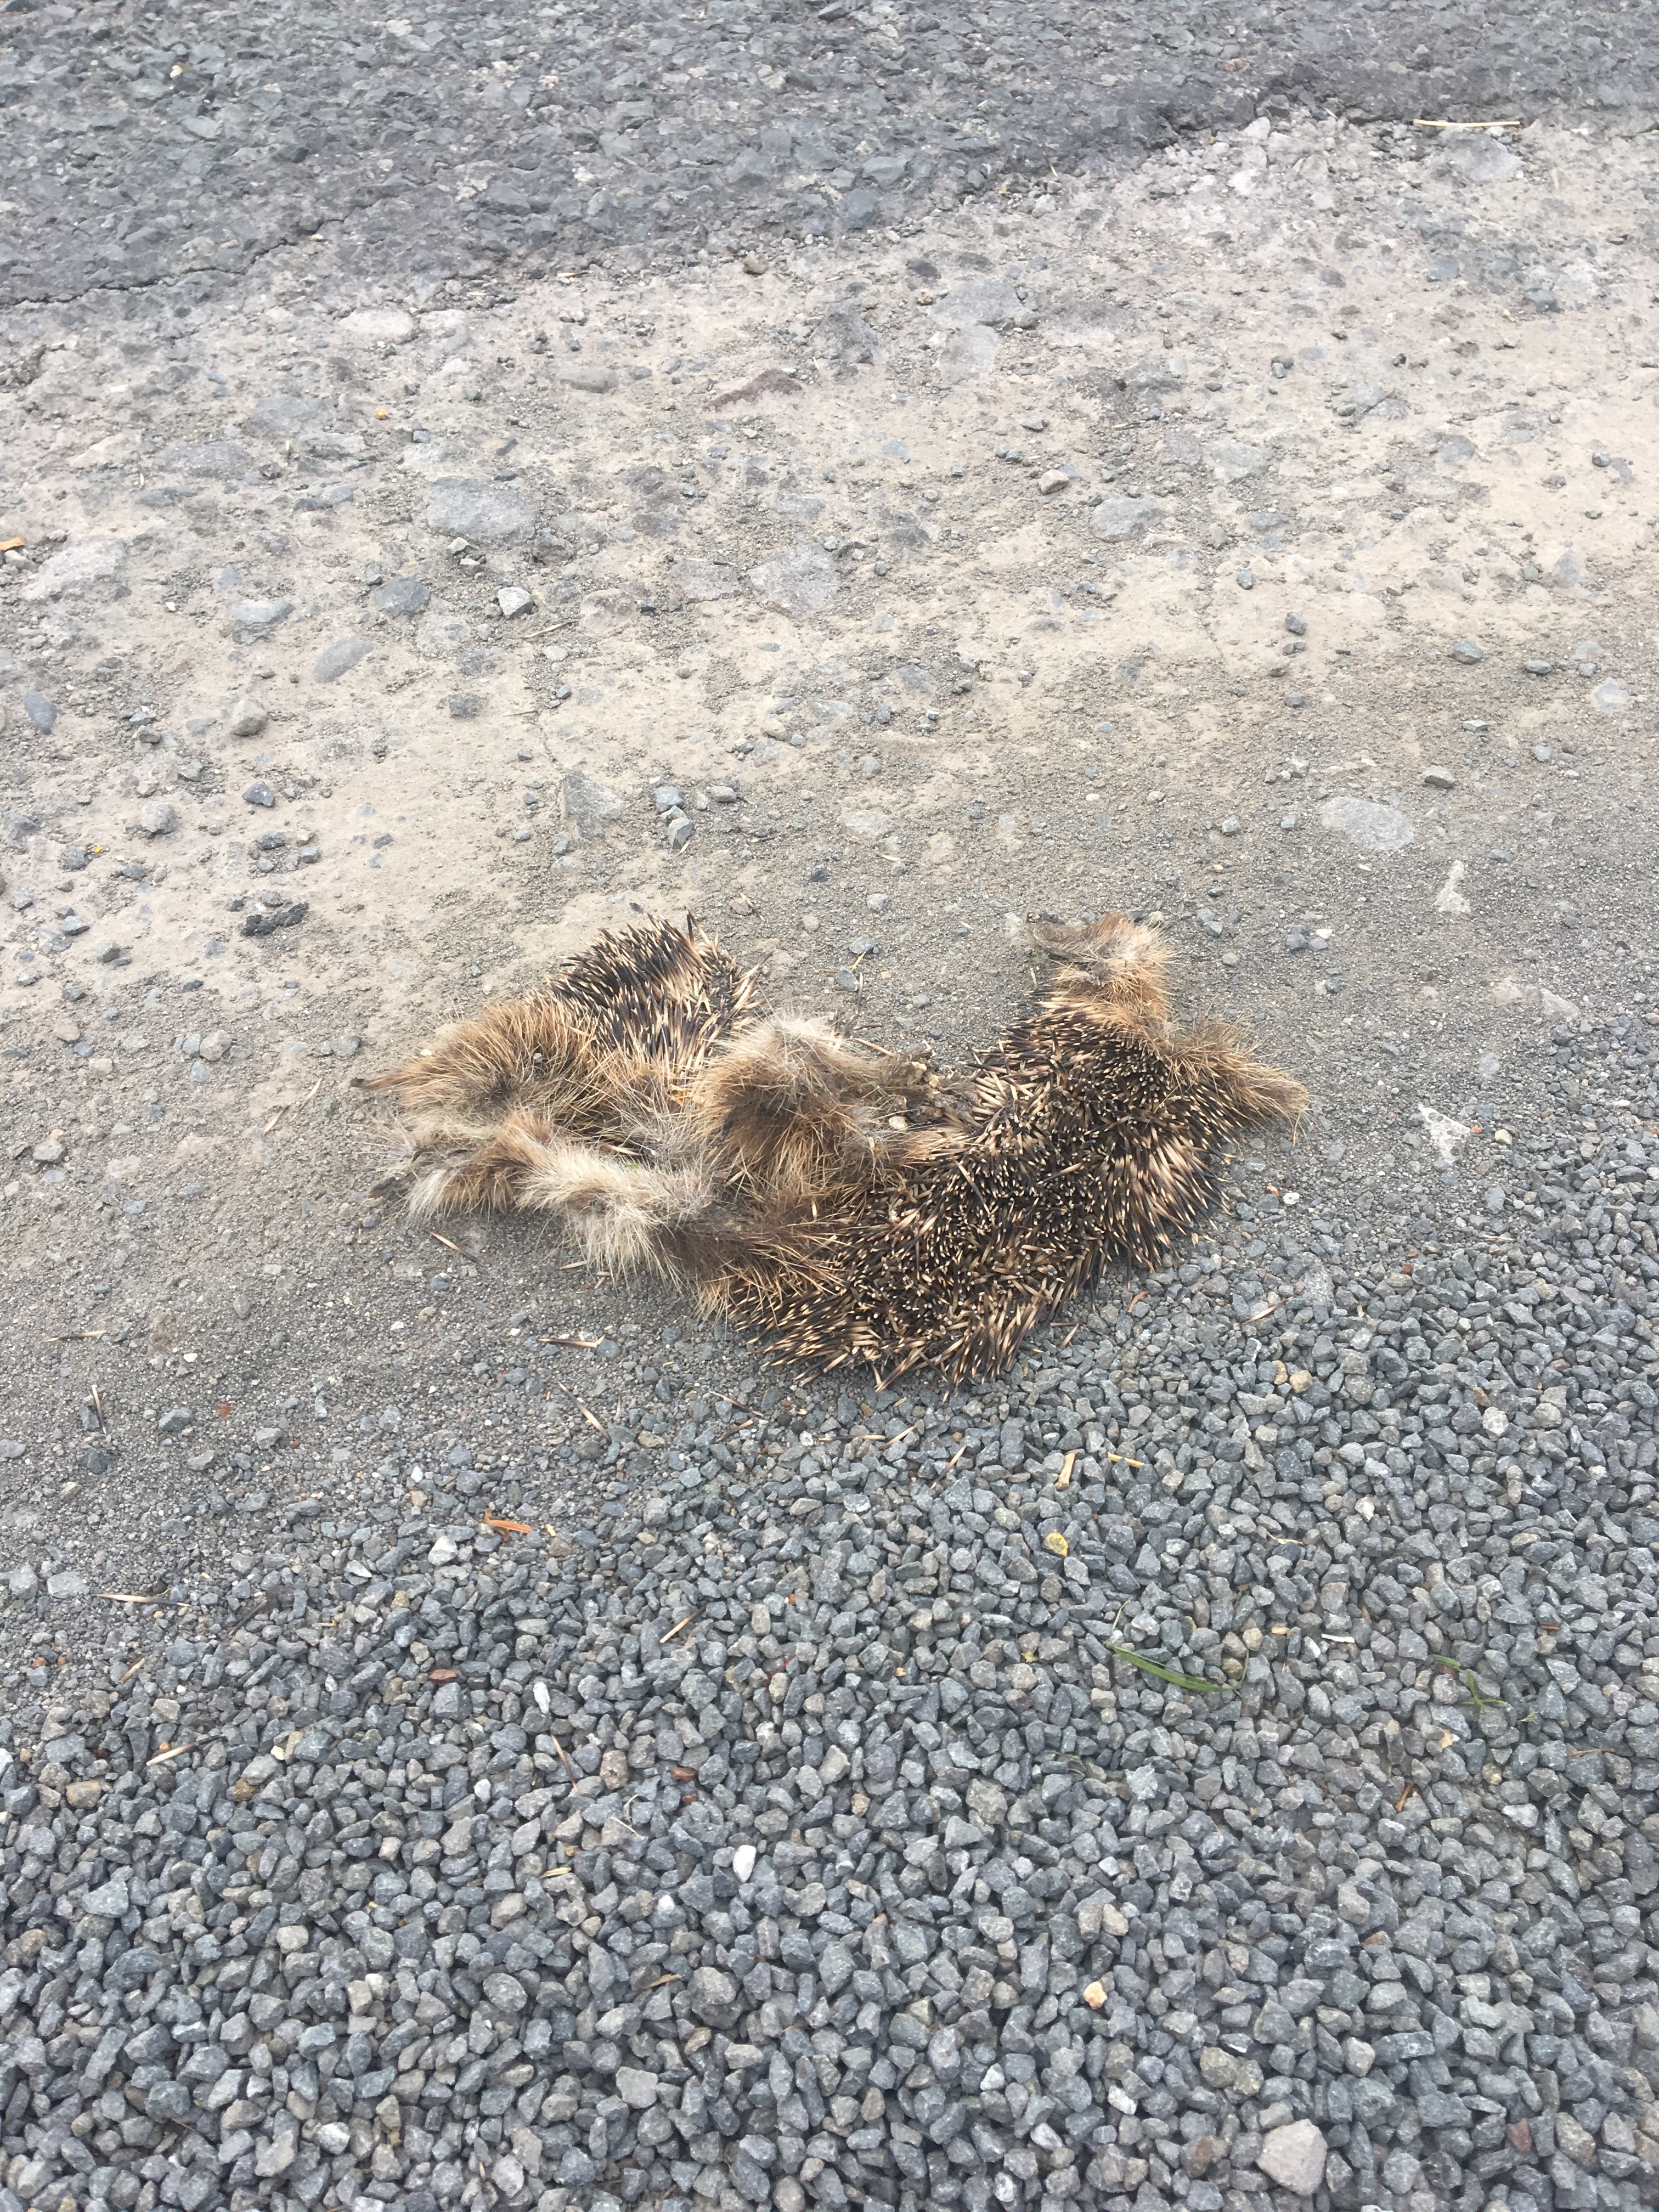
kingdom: Animalia
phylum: Chordata
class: Mammalia
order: Erinaceomorpha
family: Erinaceidae
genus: Erinaceus
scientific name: Erinaceus
